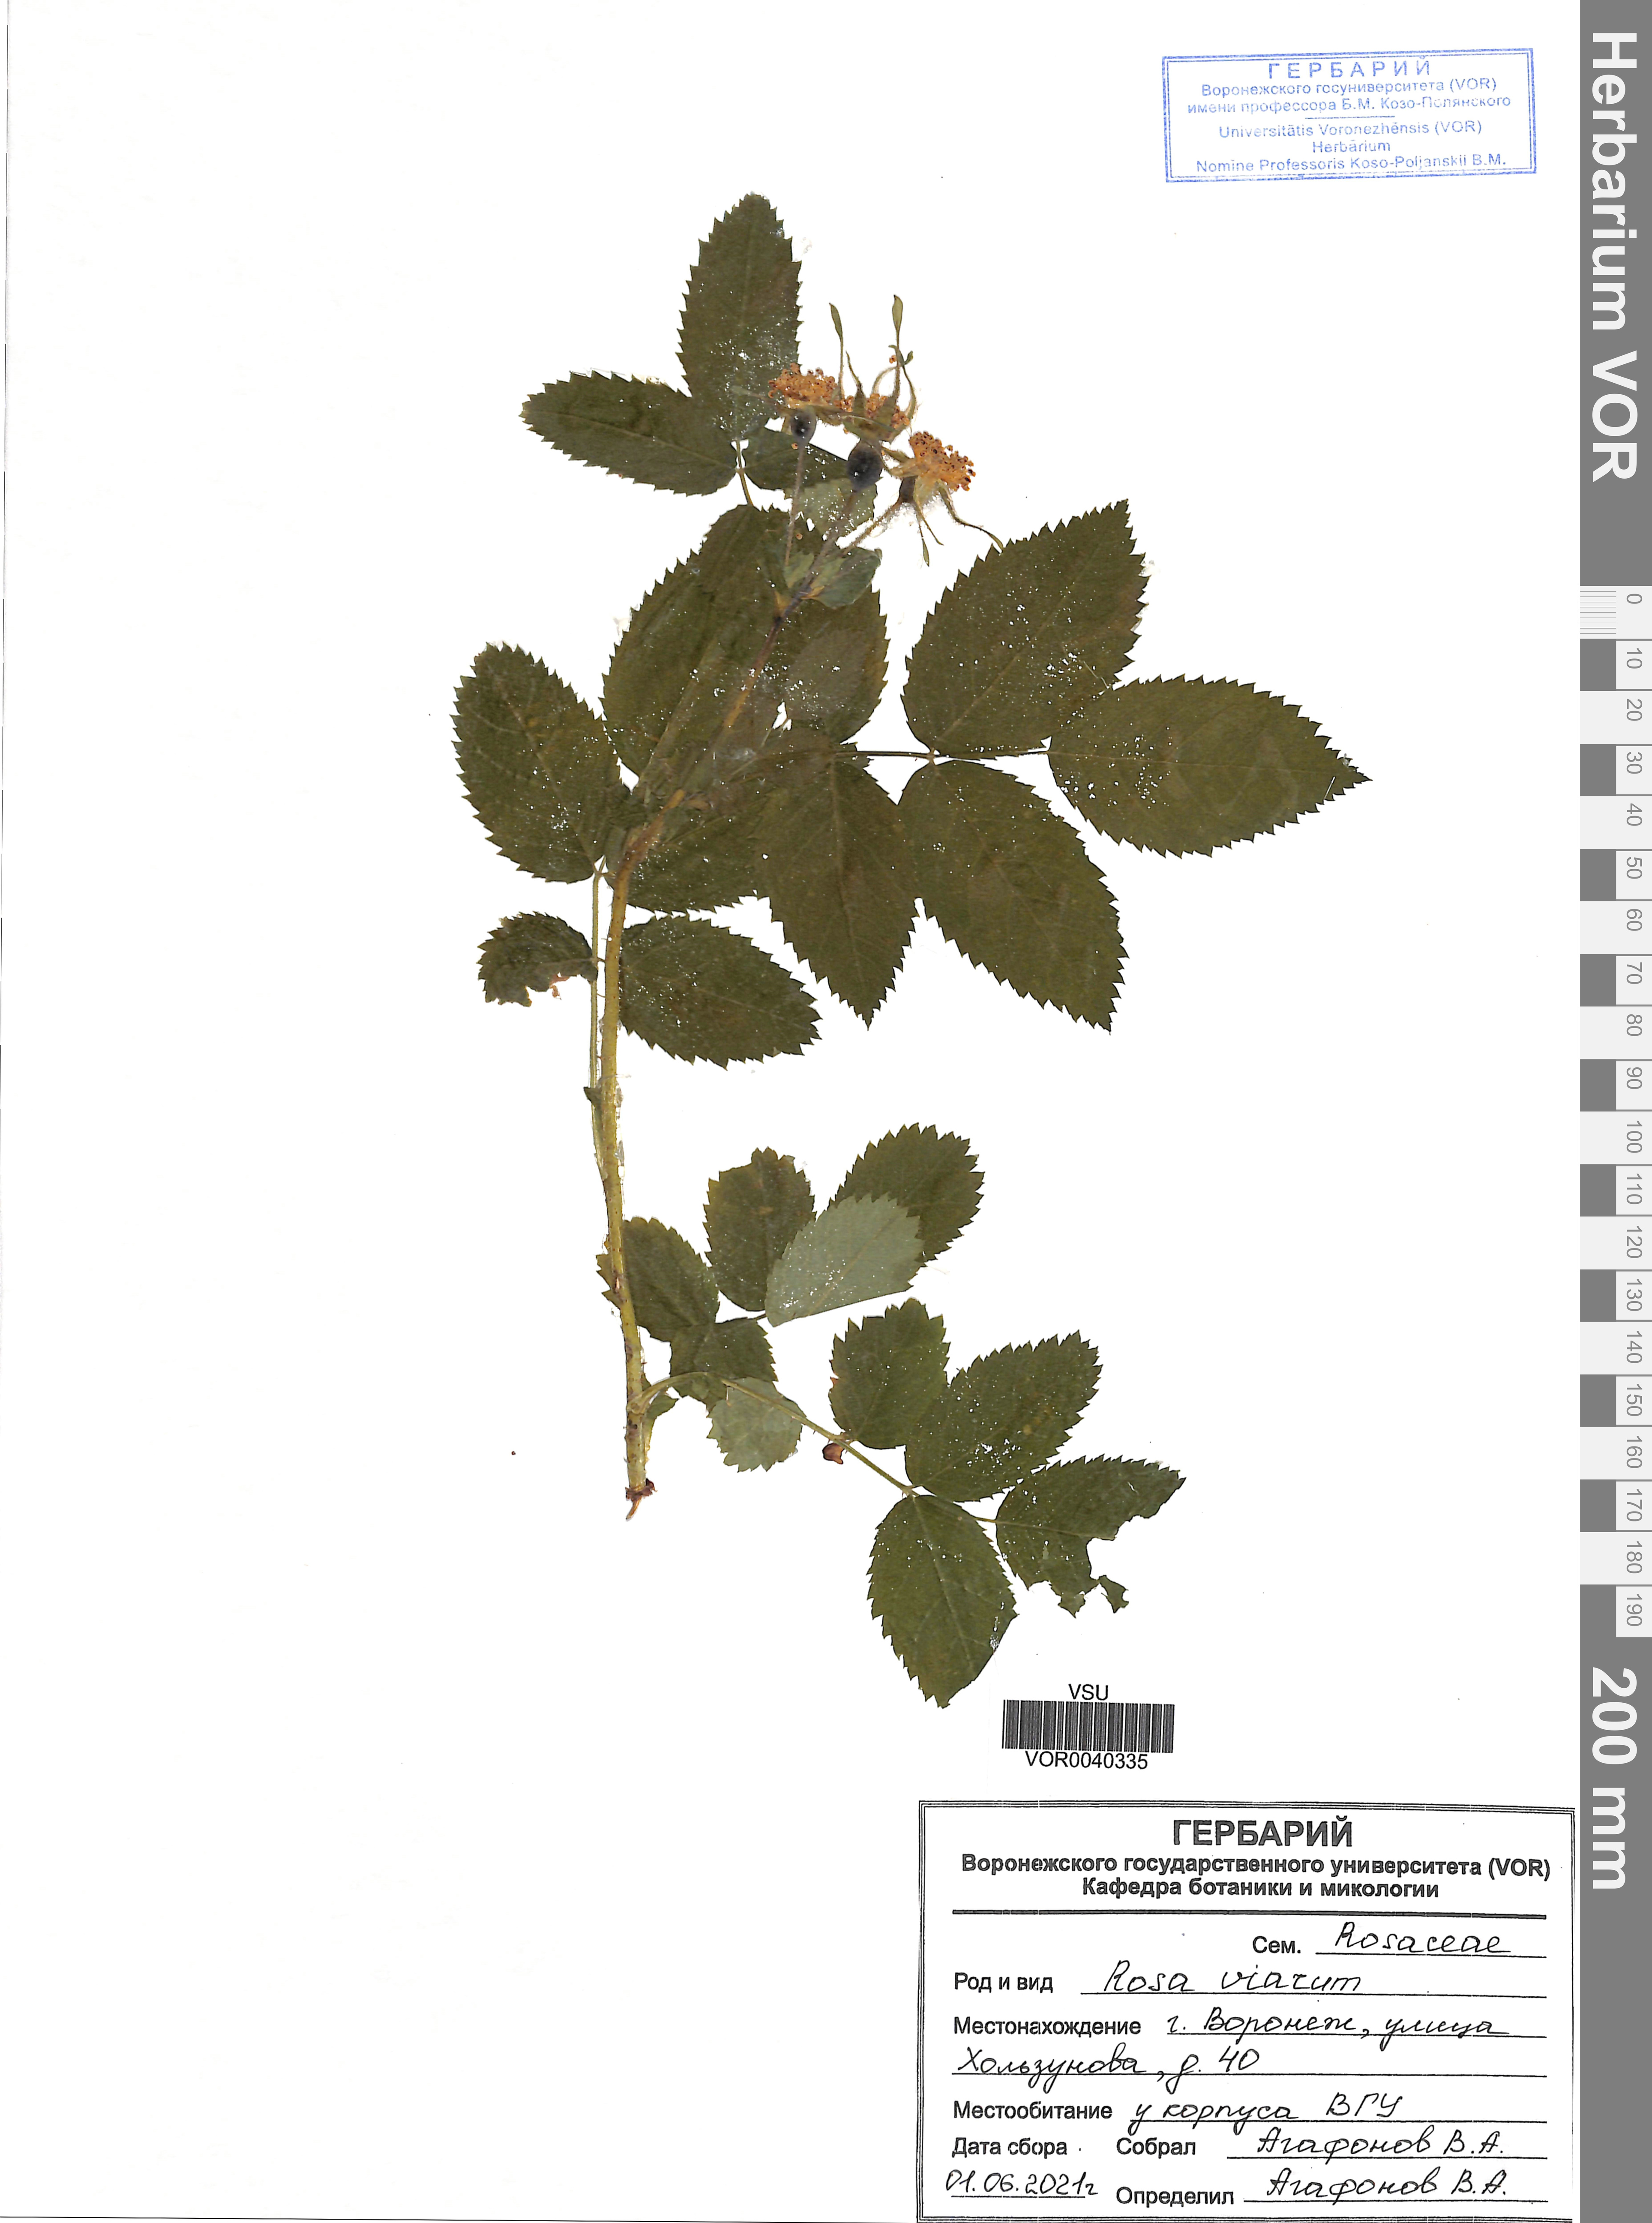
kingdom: Plantae
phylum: Tracheophyta
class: Magnoliopsida
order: Rosales
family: Rosaceae
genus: Rosa
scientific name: Rosa viarum
